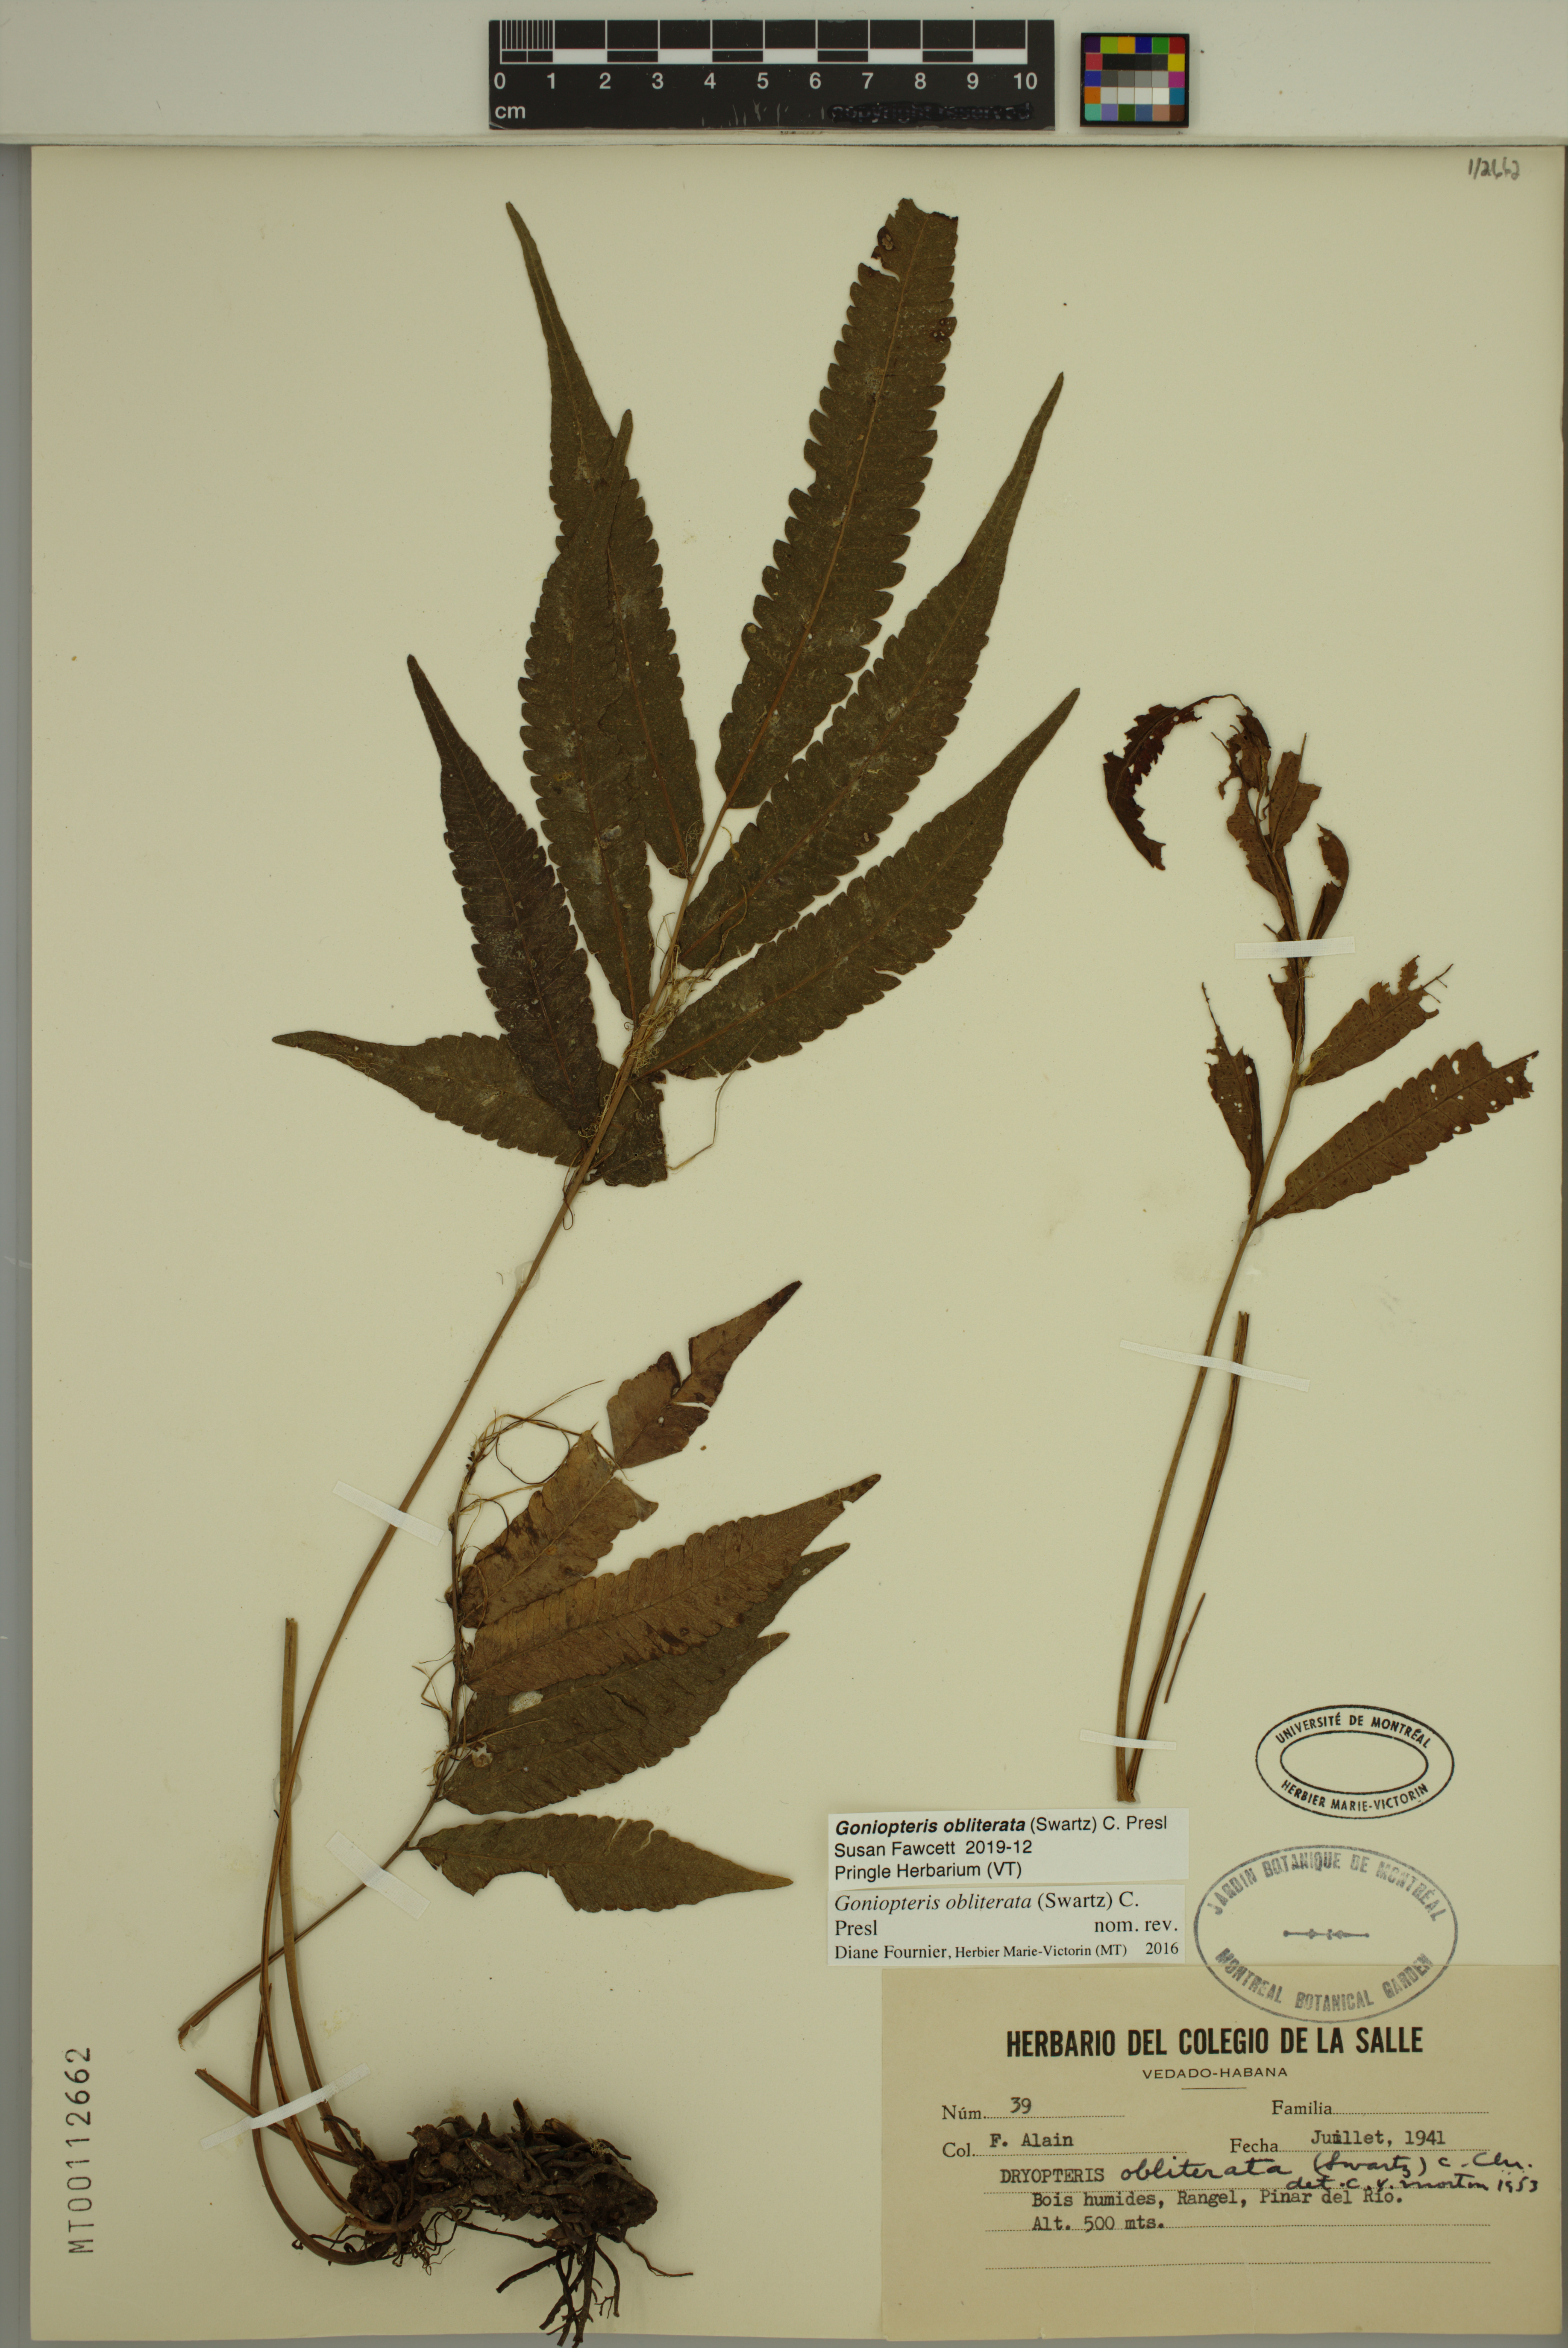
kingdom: Plantae
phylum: Tracheophyta
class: Polypodiopsida
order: Polypodiales
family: Thelypteridaceae
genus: Goniopteris
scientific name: Goniopteris obliterata
